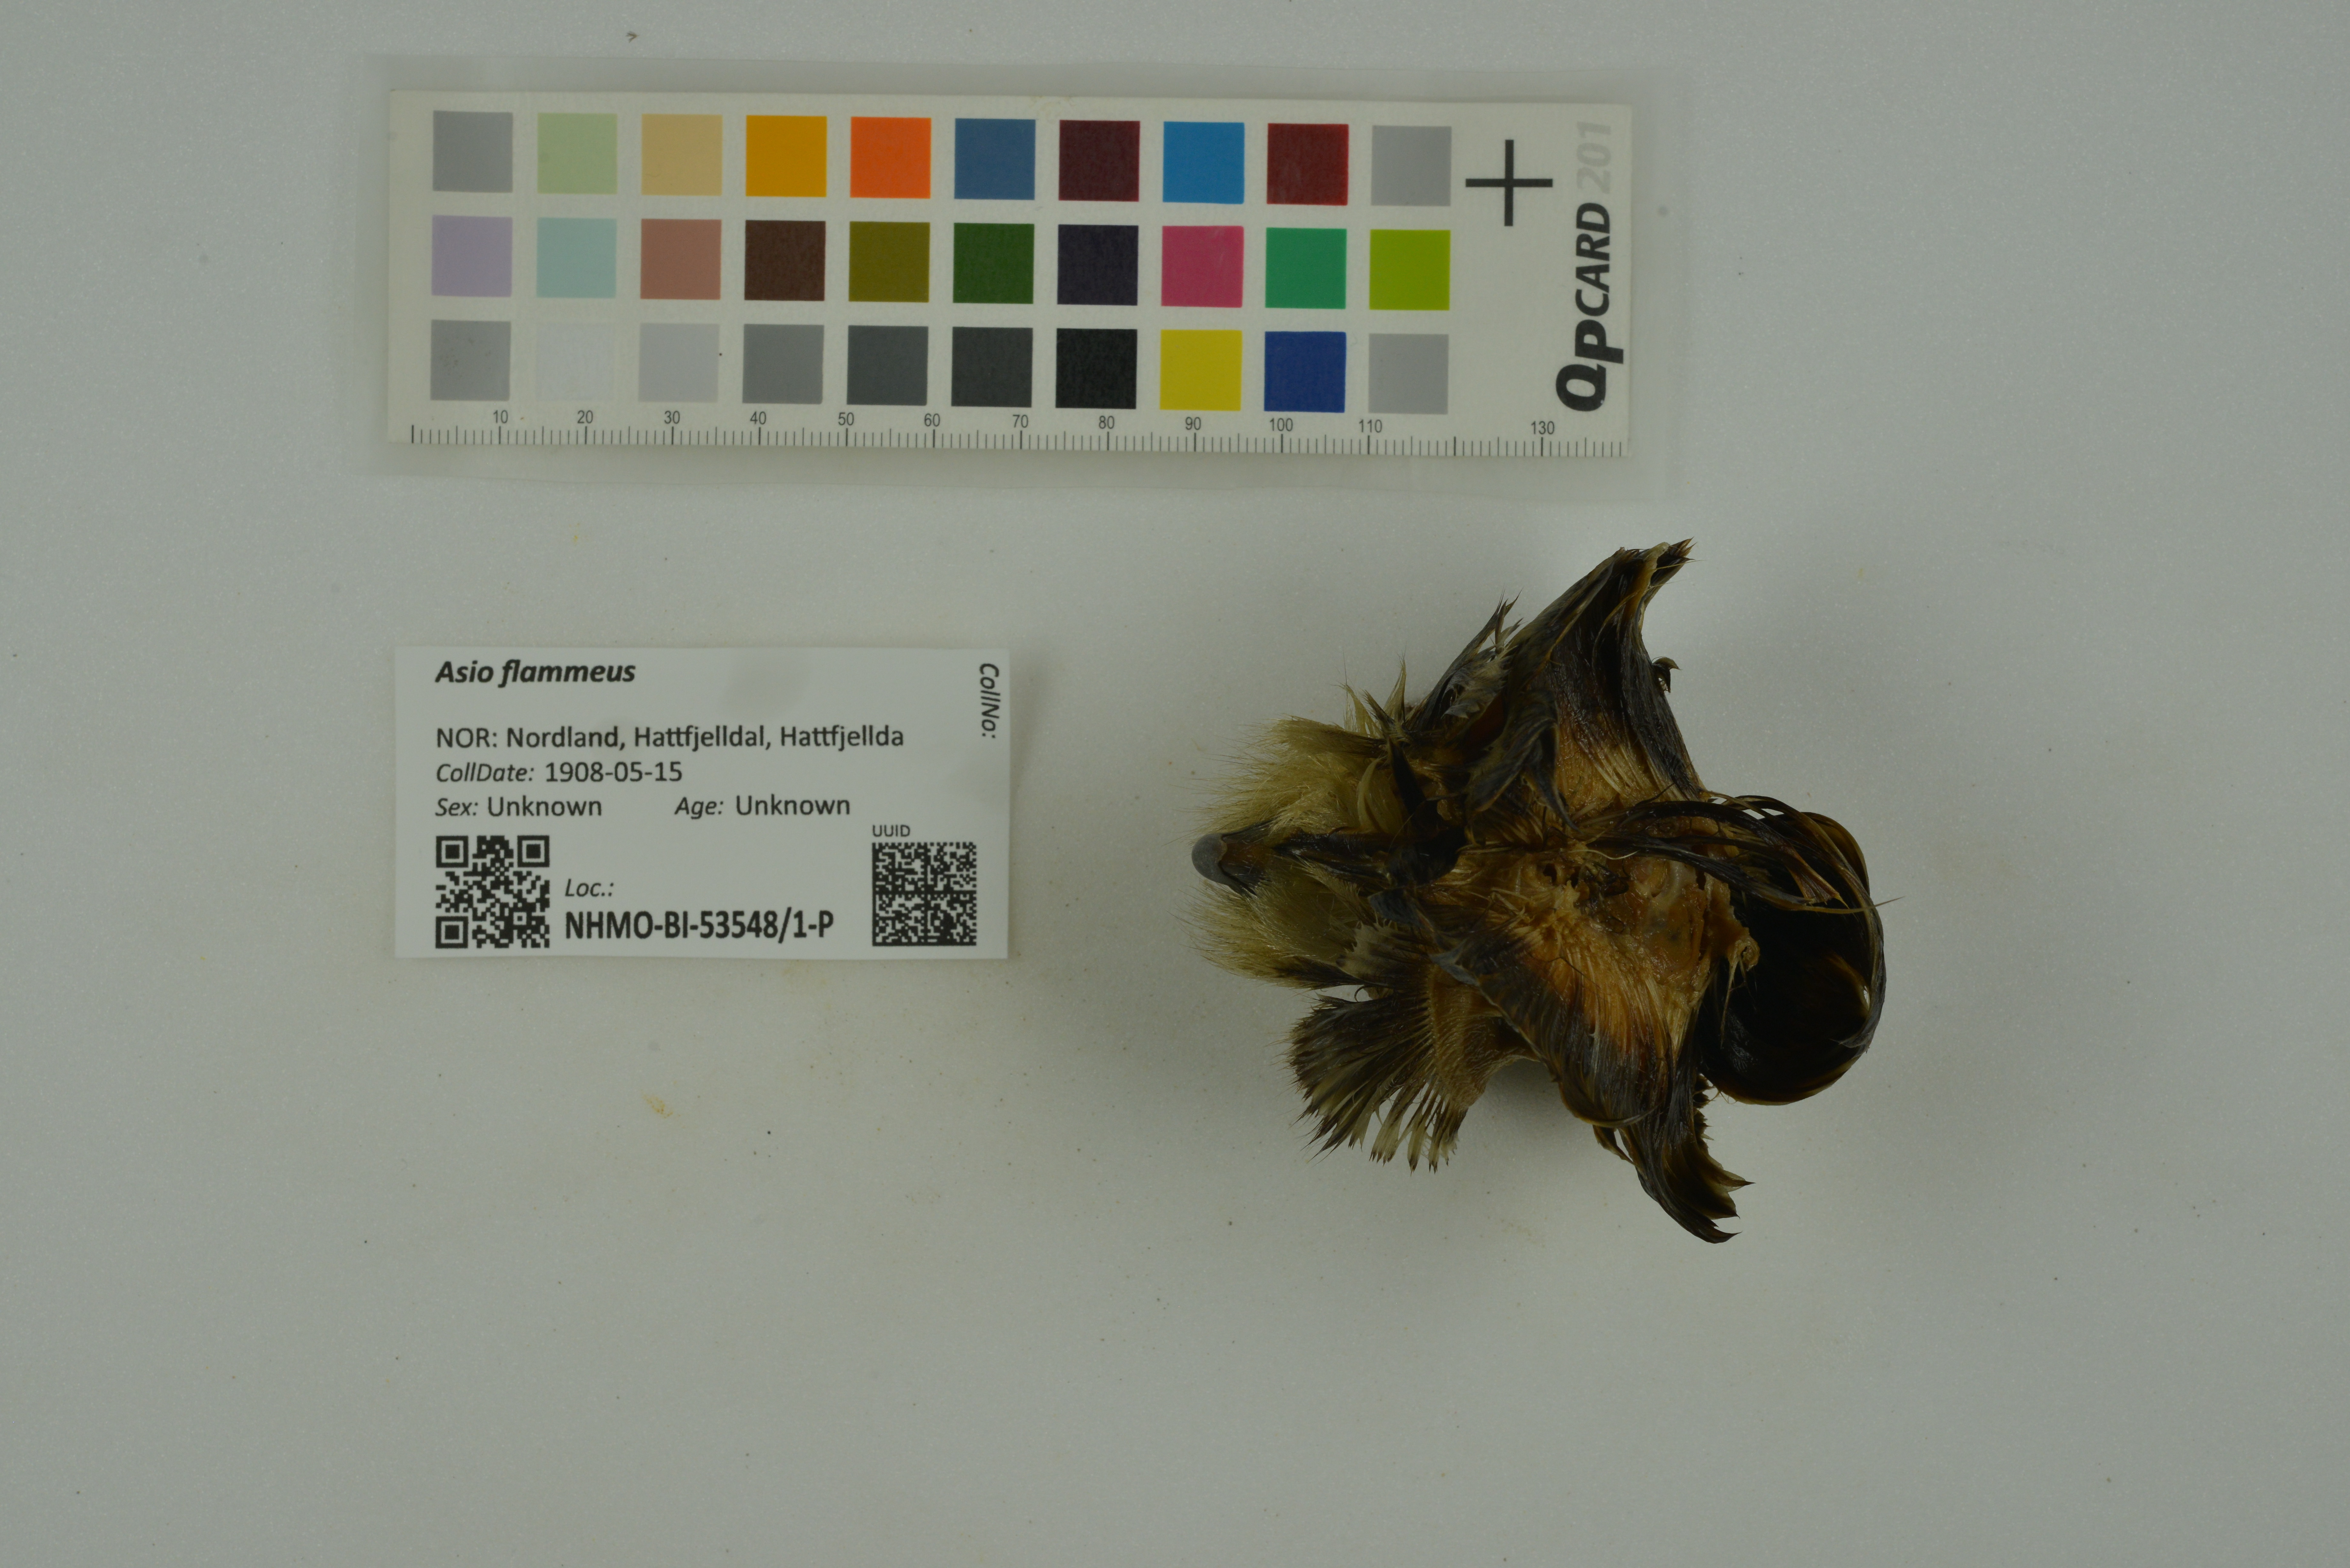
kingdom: Animalia
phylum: Chordata
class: Aves
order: Strigiformes
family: Strigidae
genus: Asio
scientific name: Asio flammeus
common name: Short-eared owl
